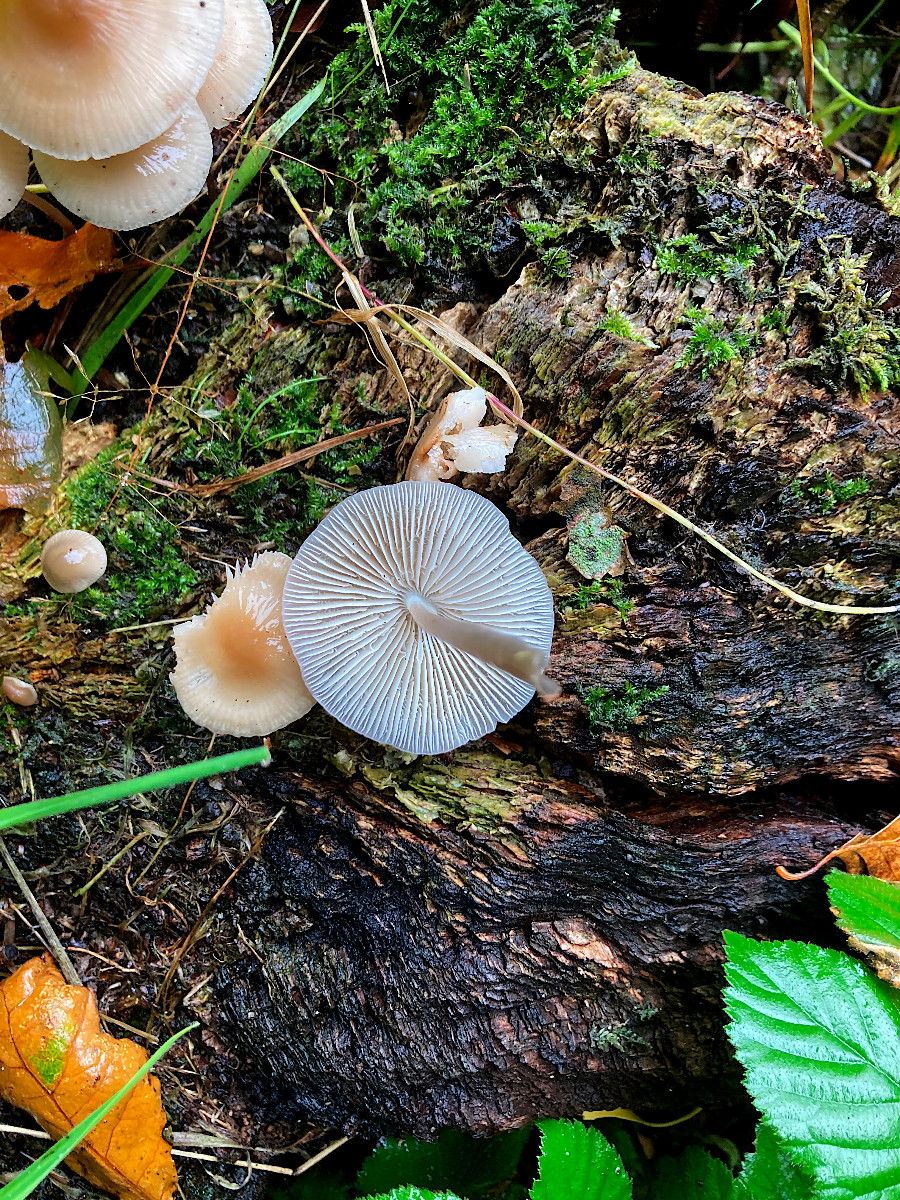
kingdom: Fungi
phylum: Basidiomycota
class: Agaricomycetes
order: Agaricales
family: Mycenaceae
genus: Mycena
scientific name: Mycena galericulata
